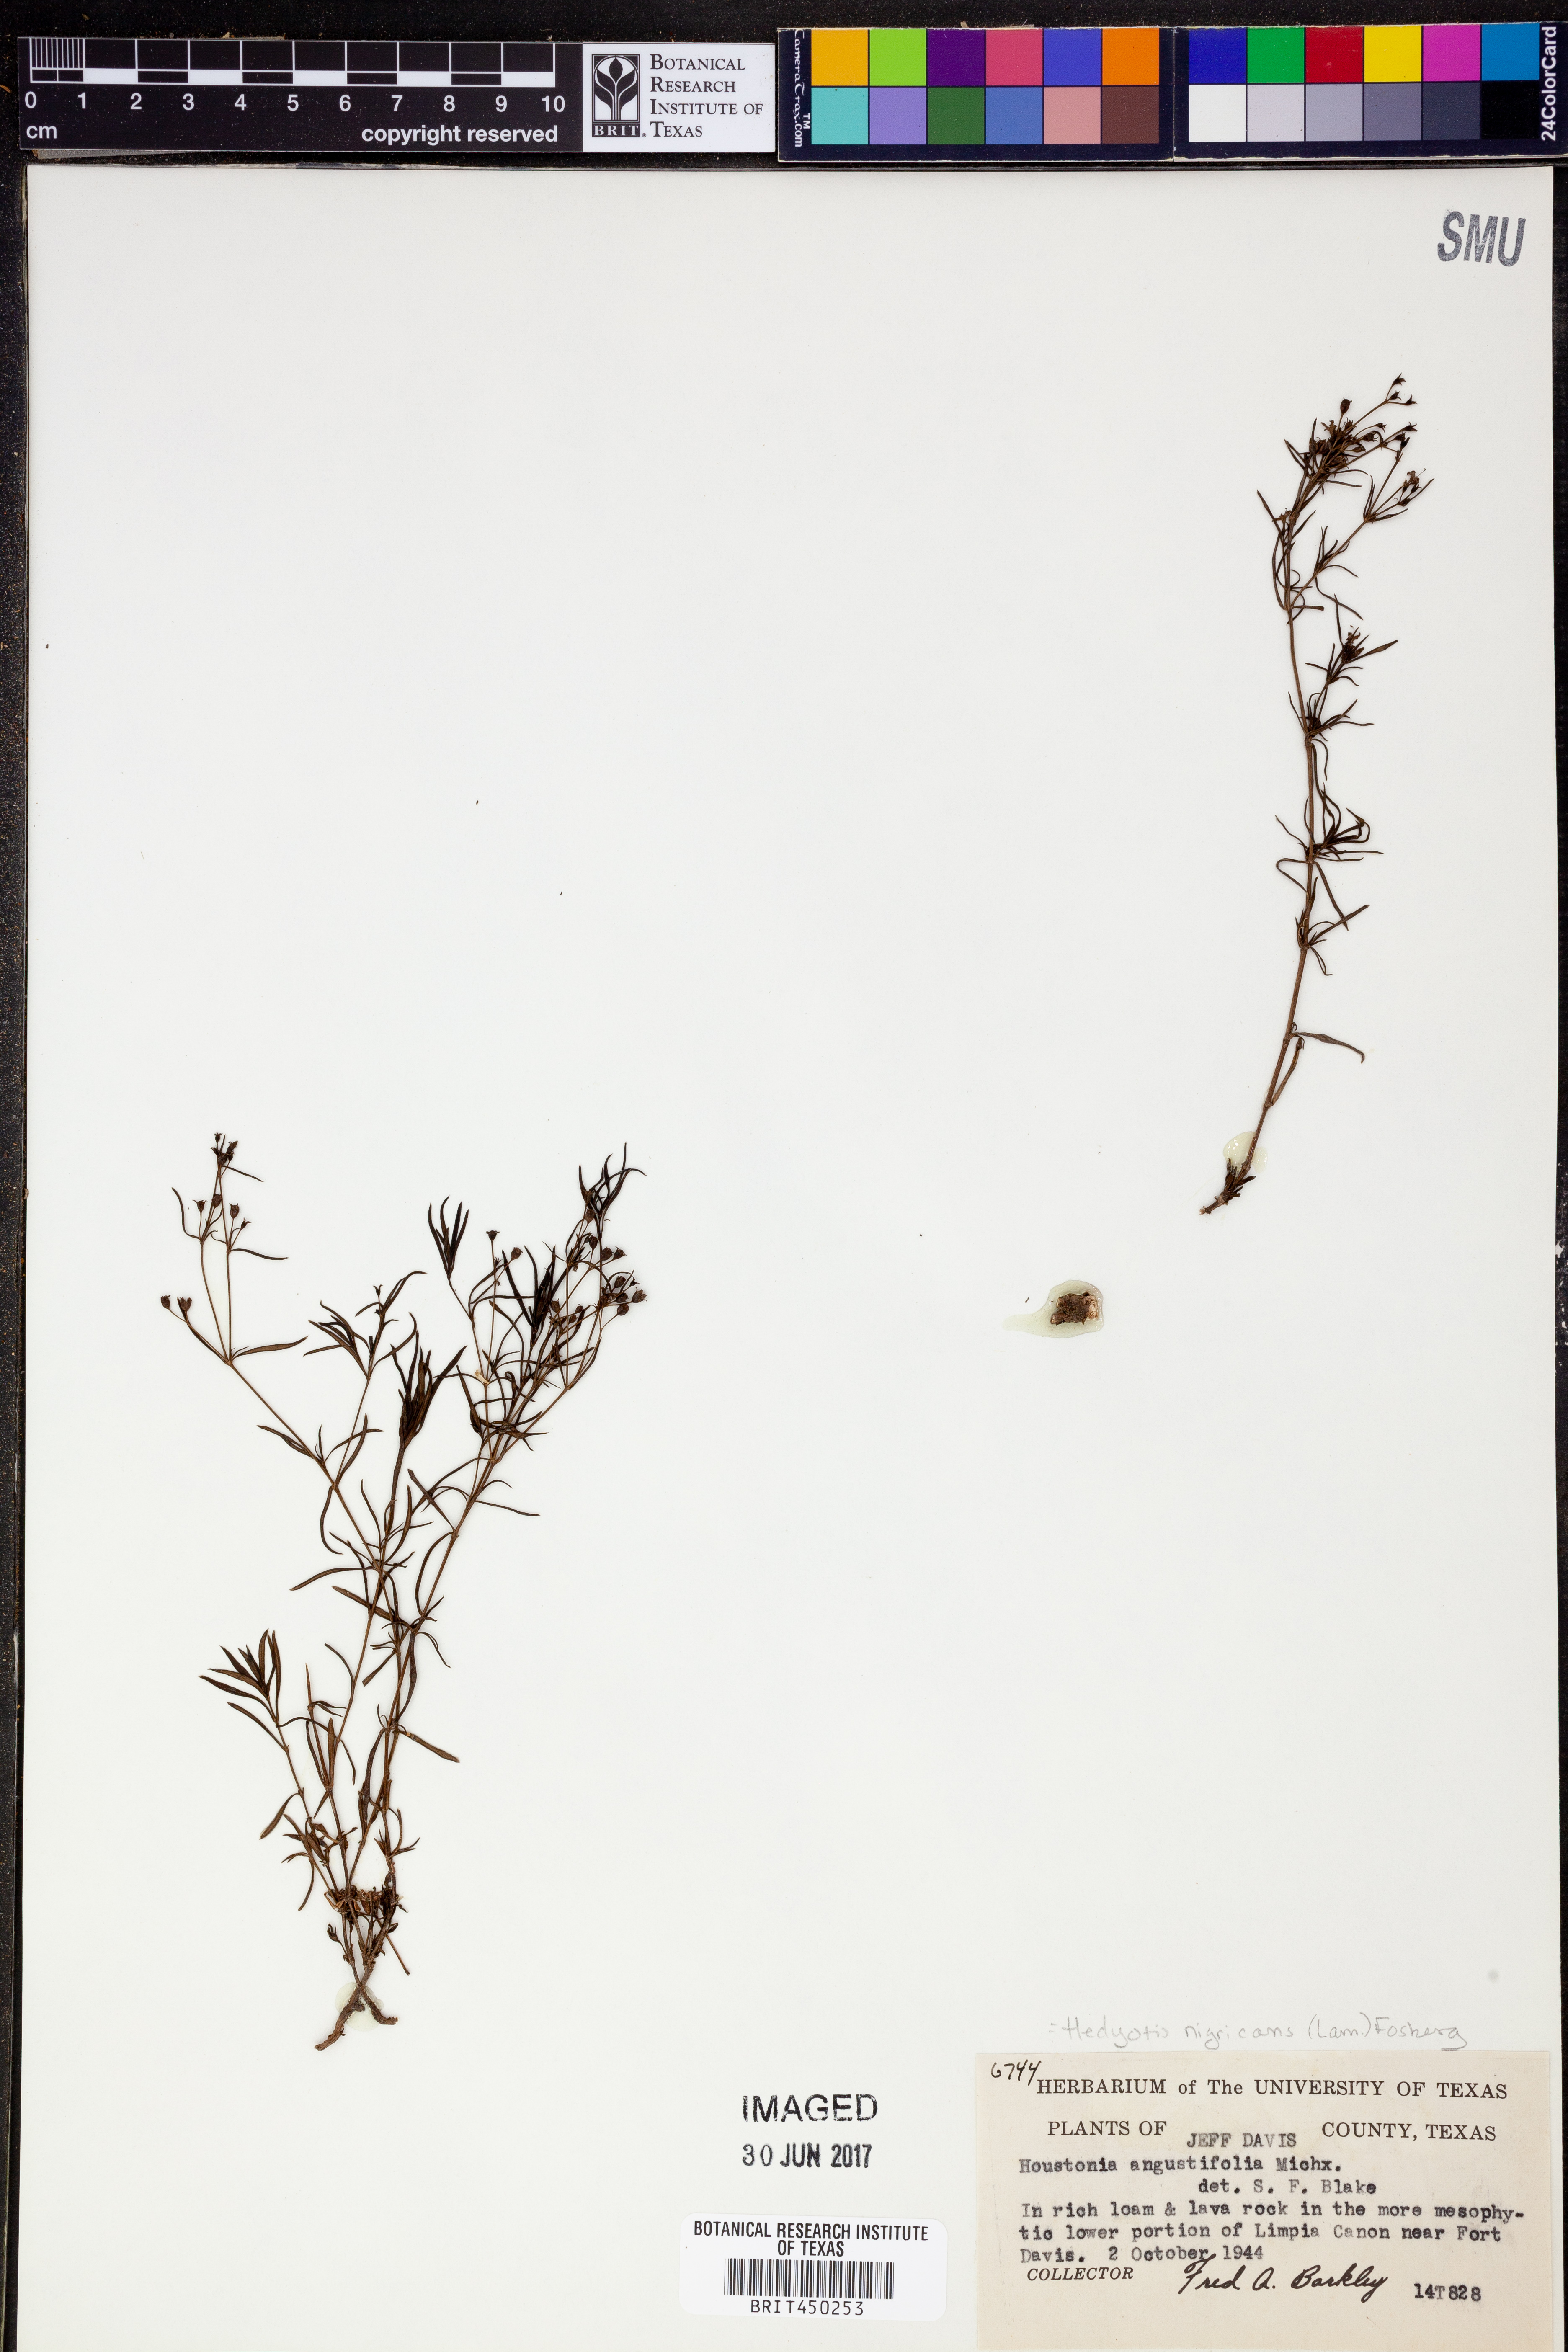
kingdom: Plantae
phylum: Tracheophyta
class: Magnoliopsida
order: Gentianales
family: Rubiaceae
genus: Stenaria
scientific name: Stenaria nigricans
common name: Diamondflowers
